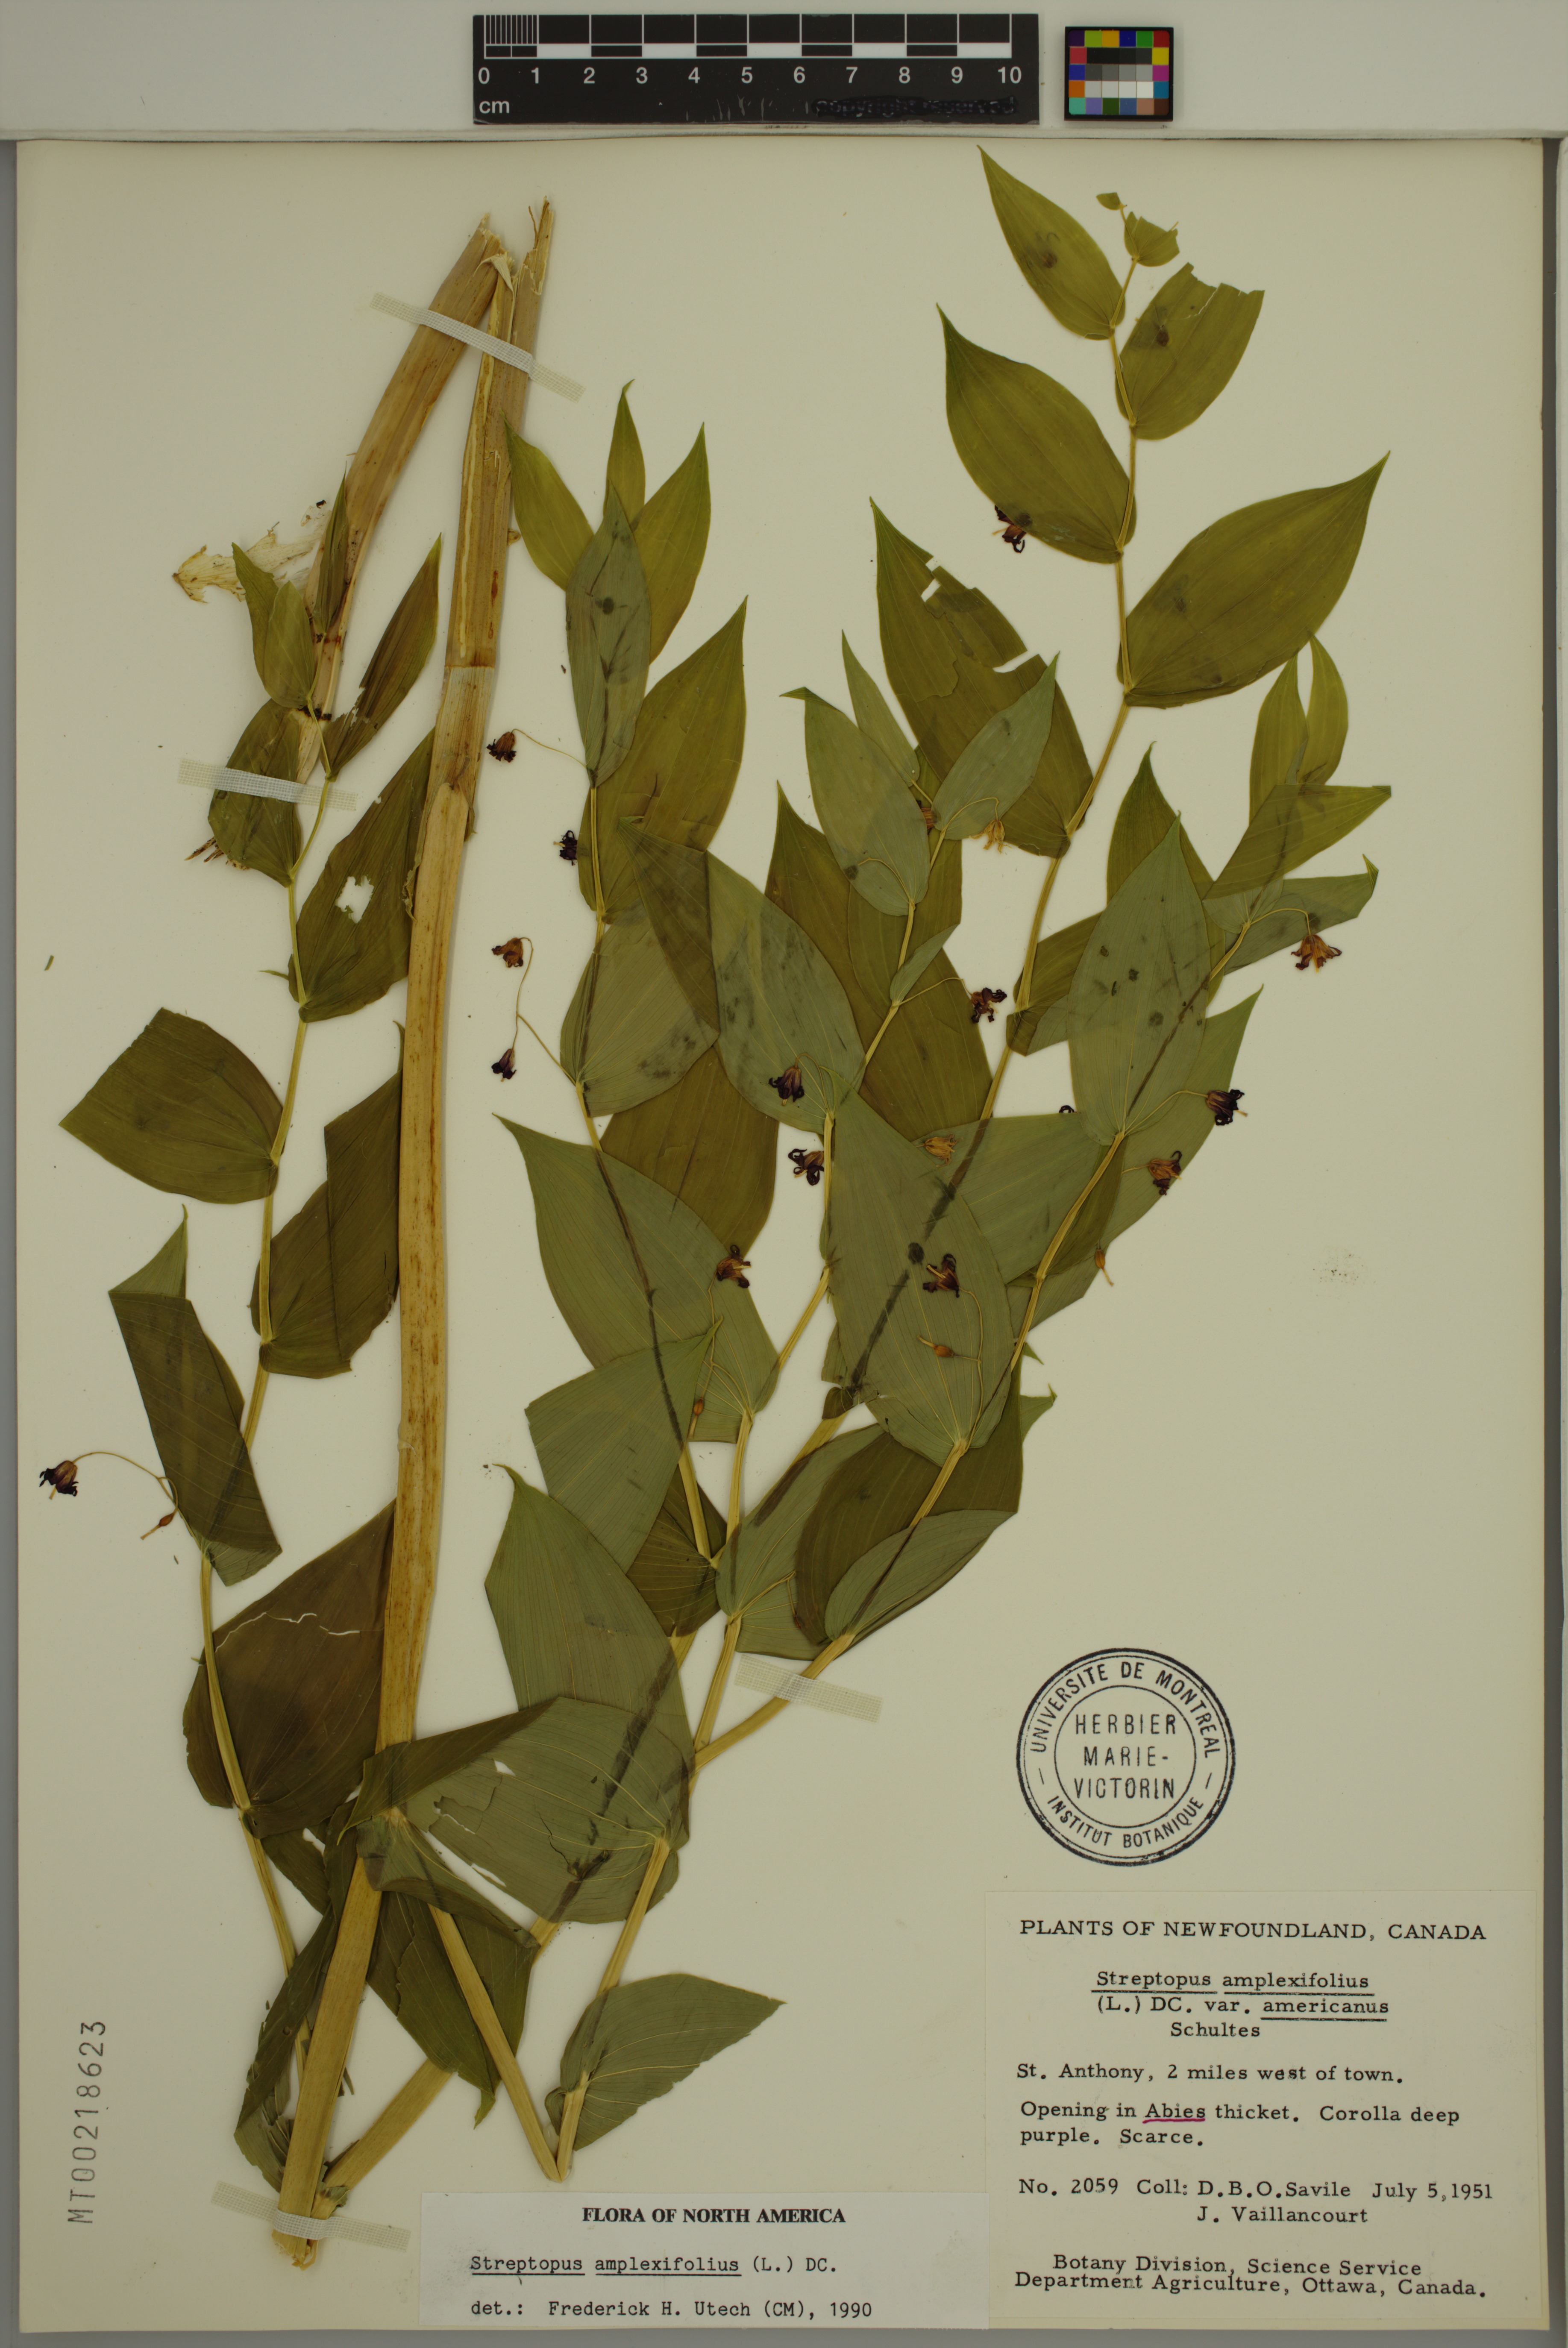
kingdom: Plantae
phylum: Tracheophyta
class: Liliopsida
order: Liliales
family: Liliaceae
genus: Streptopus
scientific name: Streptopus amplexifolius
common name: Clasp twisted stalk
